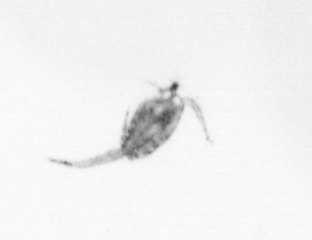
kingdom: Animalia
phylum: Arthropoda
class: Copepoda
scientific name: Copepoda
